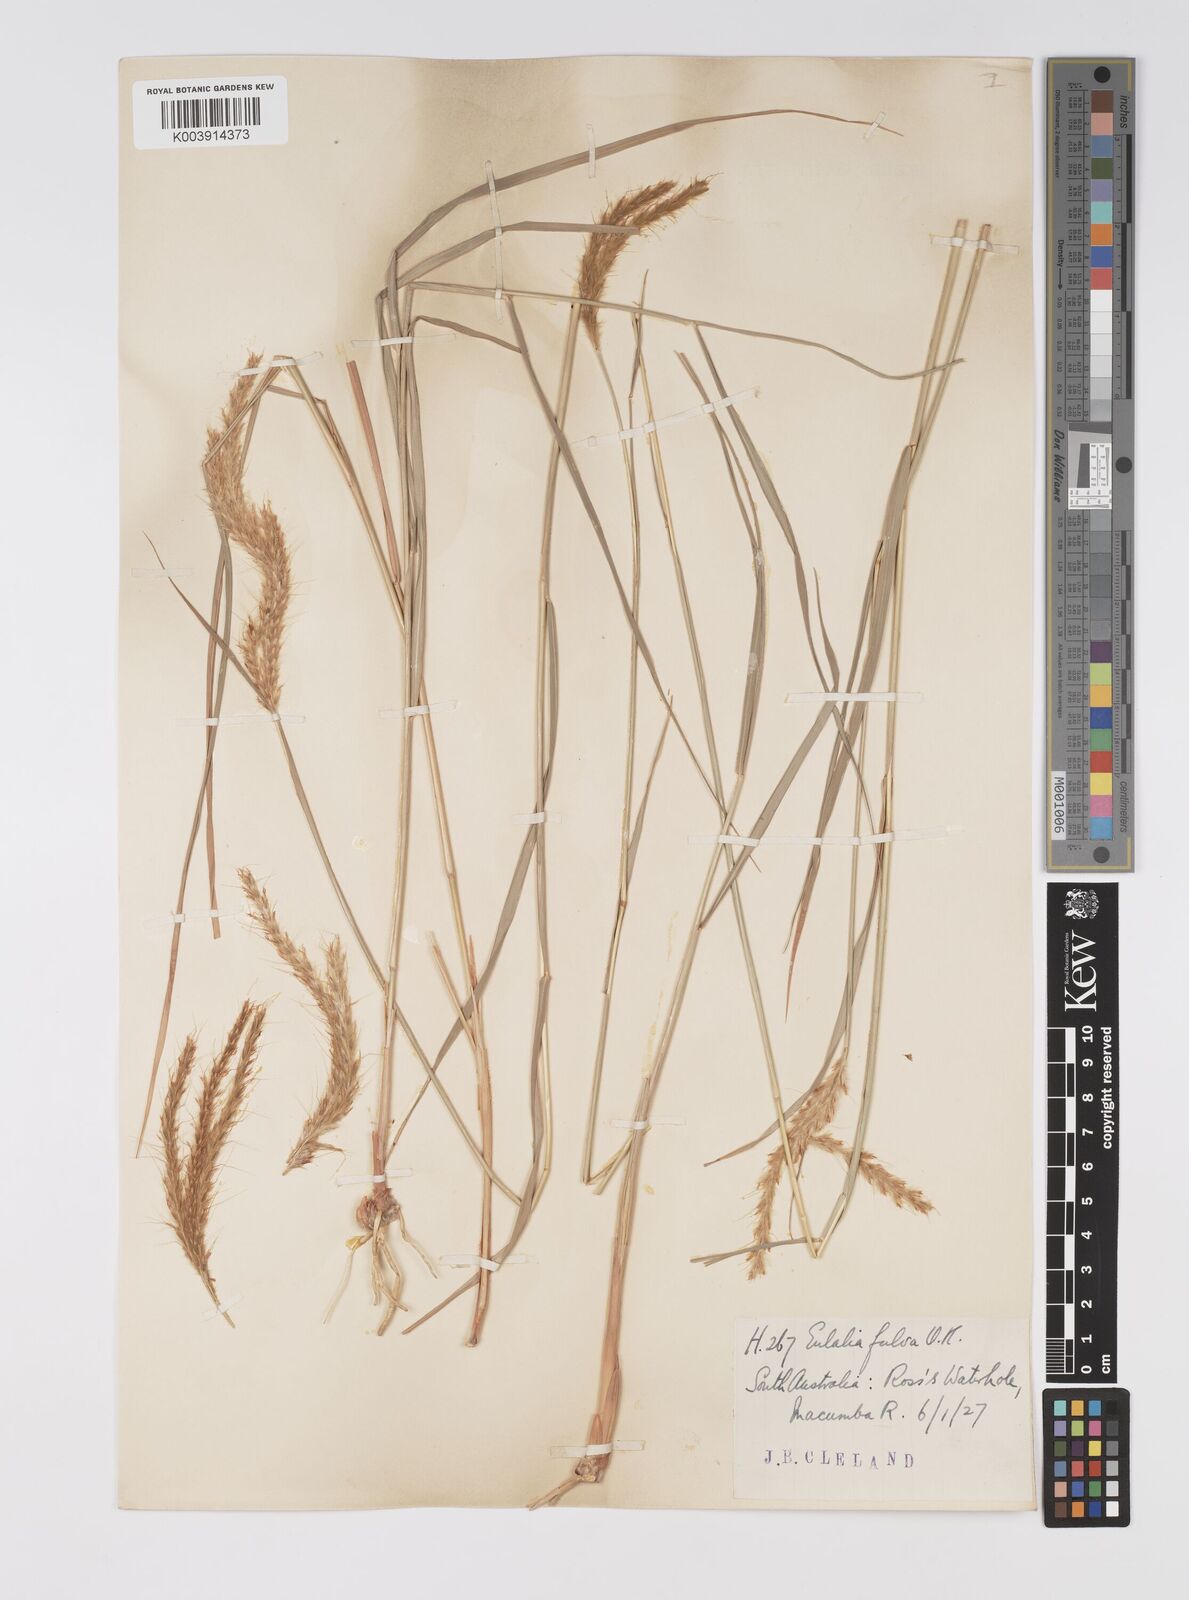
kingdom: Plantae
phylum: Tracheophyta
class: Liliopsida
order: Poales
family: Poaceae
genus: Eulalia
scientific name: Eulalia aurea
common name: Silky browntop
